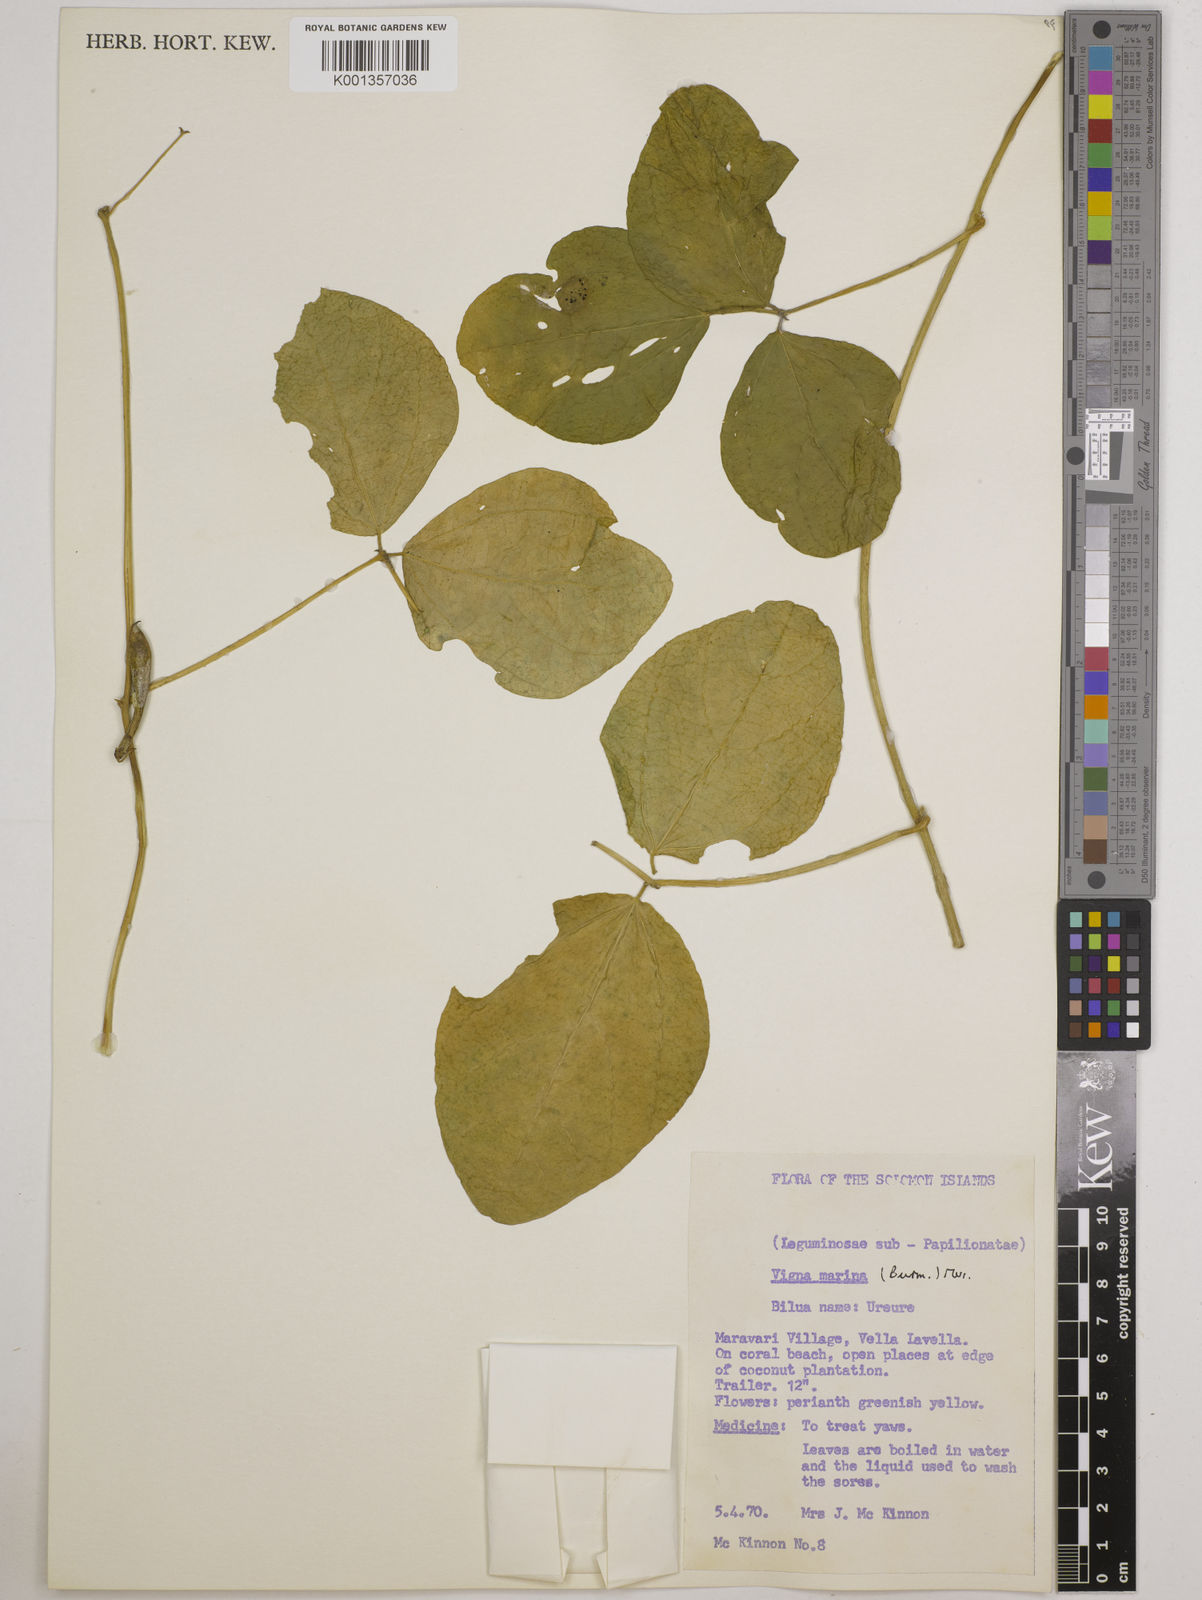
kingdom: Plantae
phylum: Tracheophyta
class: Magnoliopsida
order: Fabales
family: Fabaceae
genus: Vigna
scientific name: Vigna marina
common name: Dune-bean
